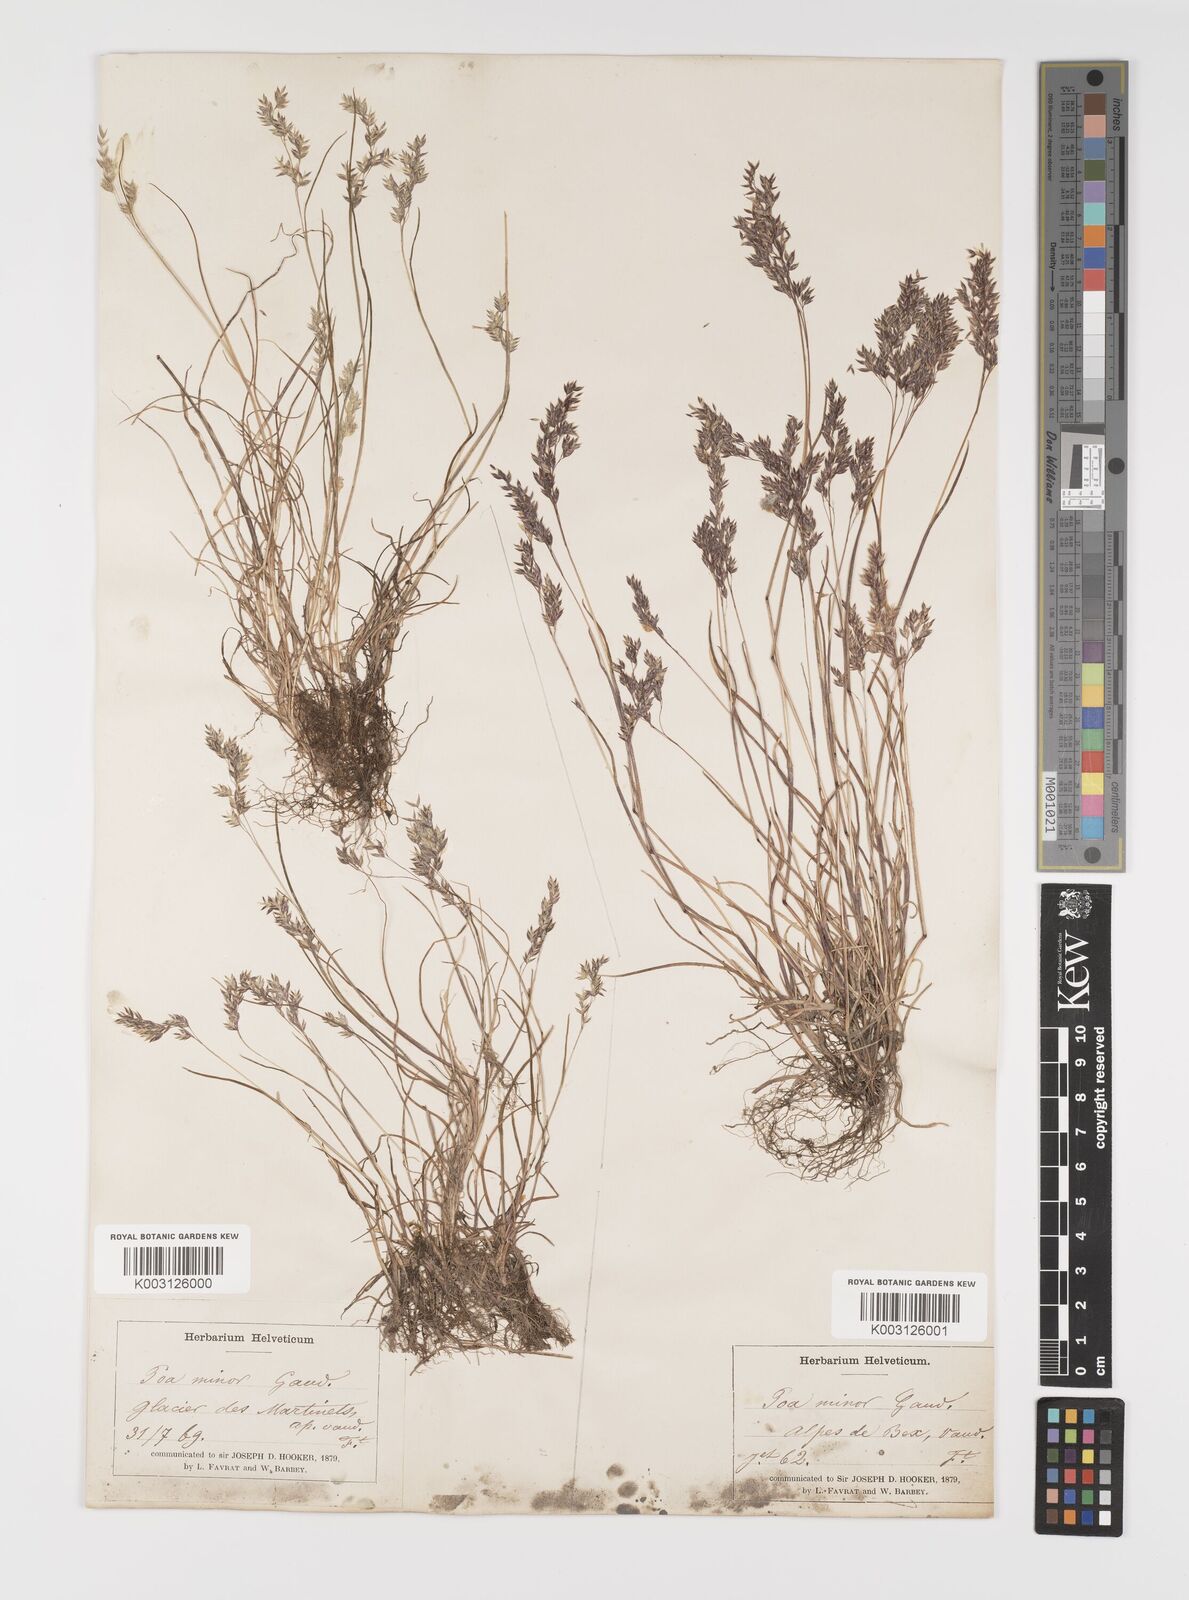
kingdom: Plantae
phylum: Tracheophyta
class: Liliopsida
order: Poales
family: Poaceae
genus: Poa
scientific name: Poa minor
